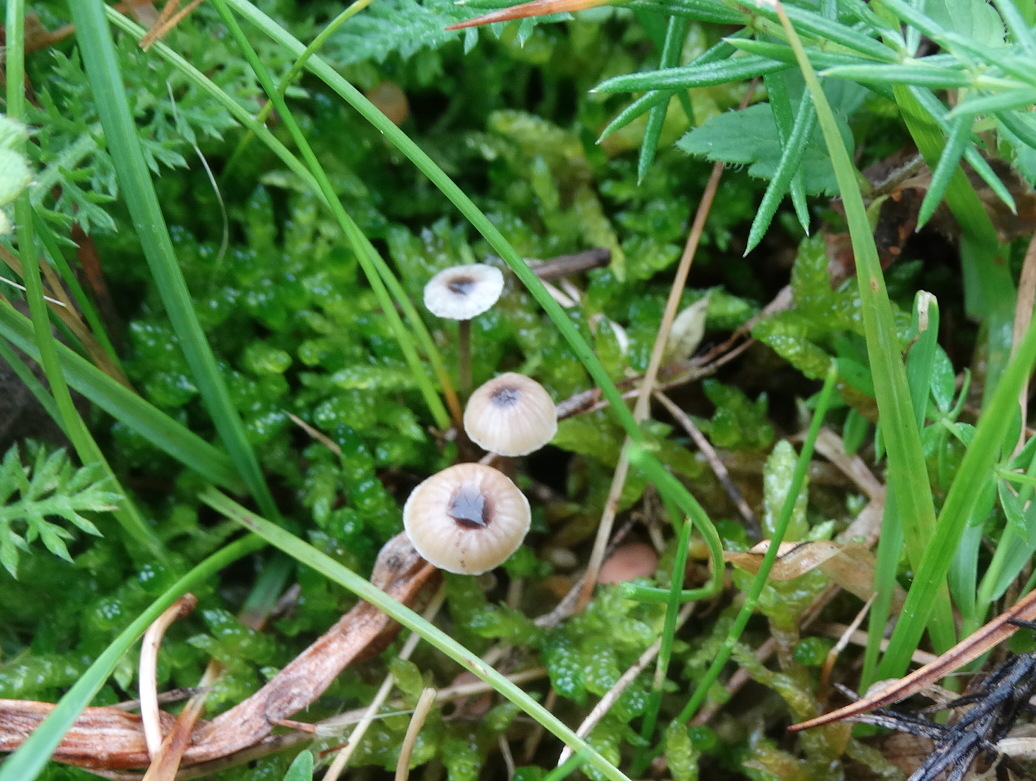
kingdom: Fungi
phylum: Basidiomycota
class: Agaricomycetes
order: Hymenochaetales
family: Rickenellaceae
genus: Rickenella
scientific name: Rickenella swartzii
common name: finstokket mosnavlehat
